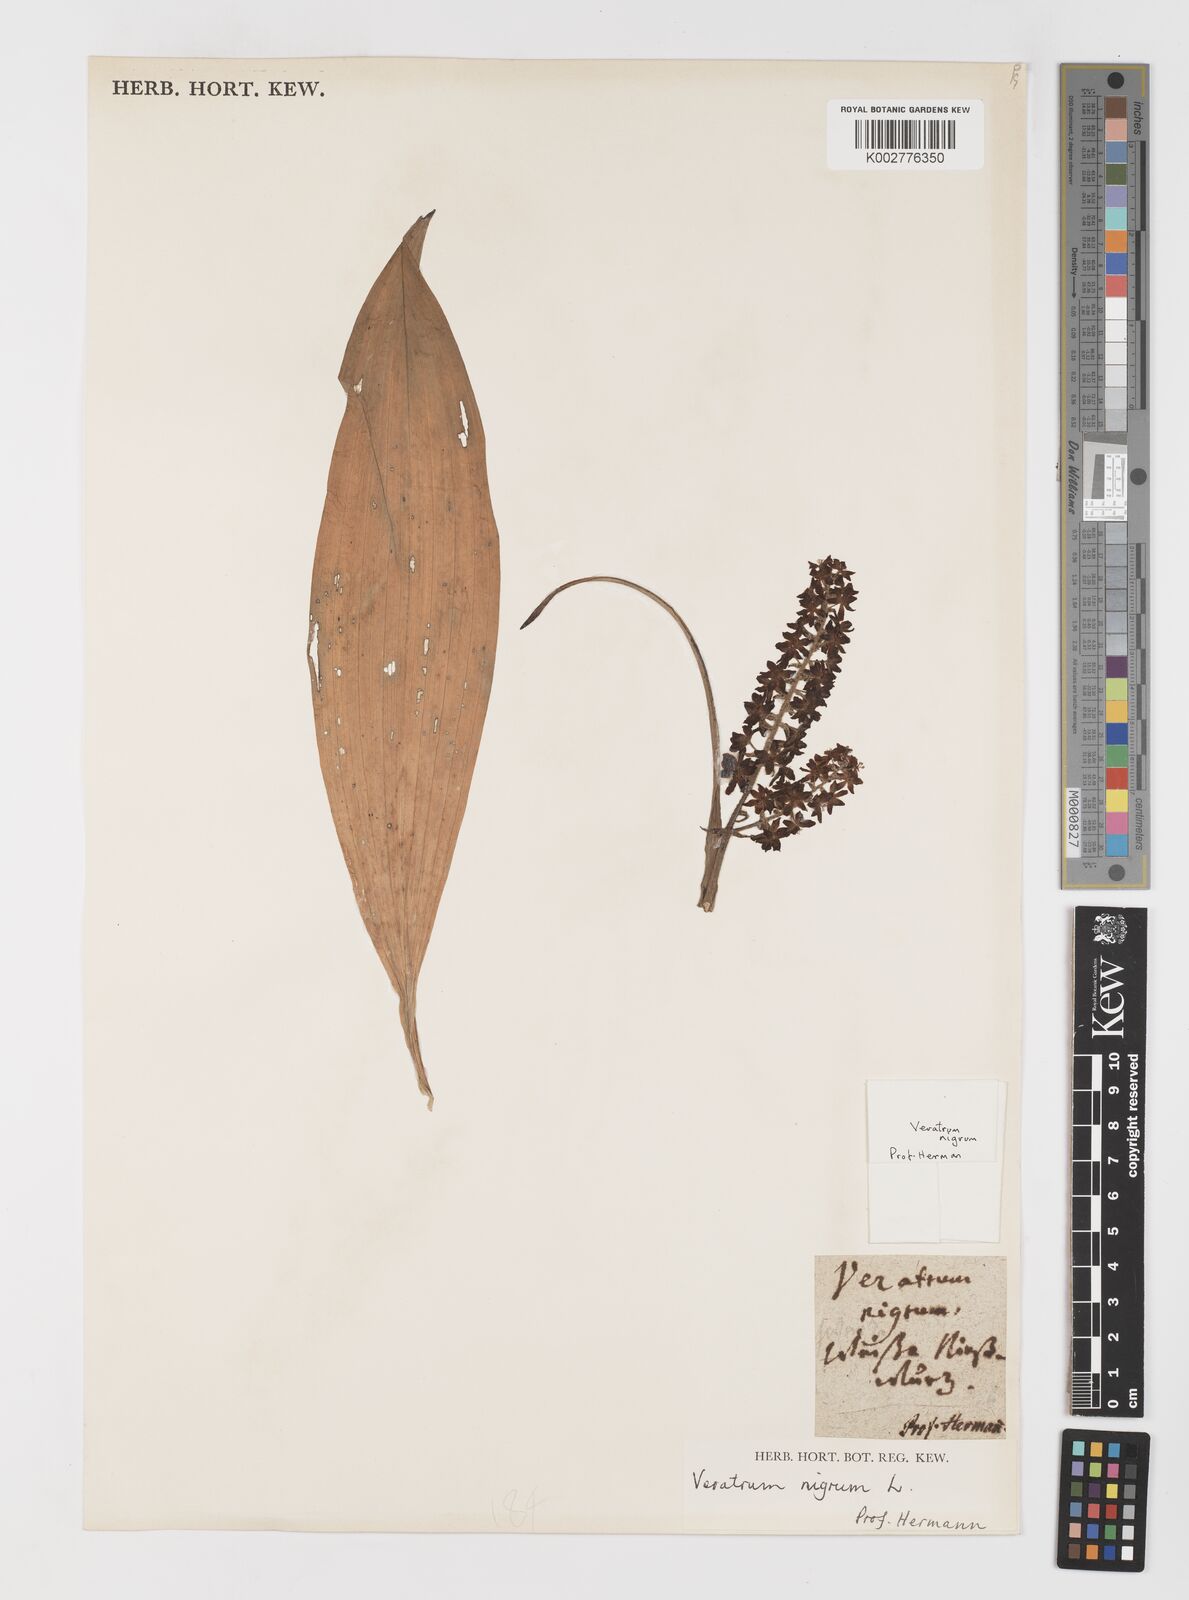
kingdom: Plantae
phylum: Tracheophyta
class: Liliopsida
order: Liliales
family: Melanthiaceae
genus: Veratrum
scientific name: Veratrum nigrum
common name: Black veratrum
